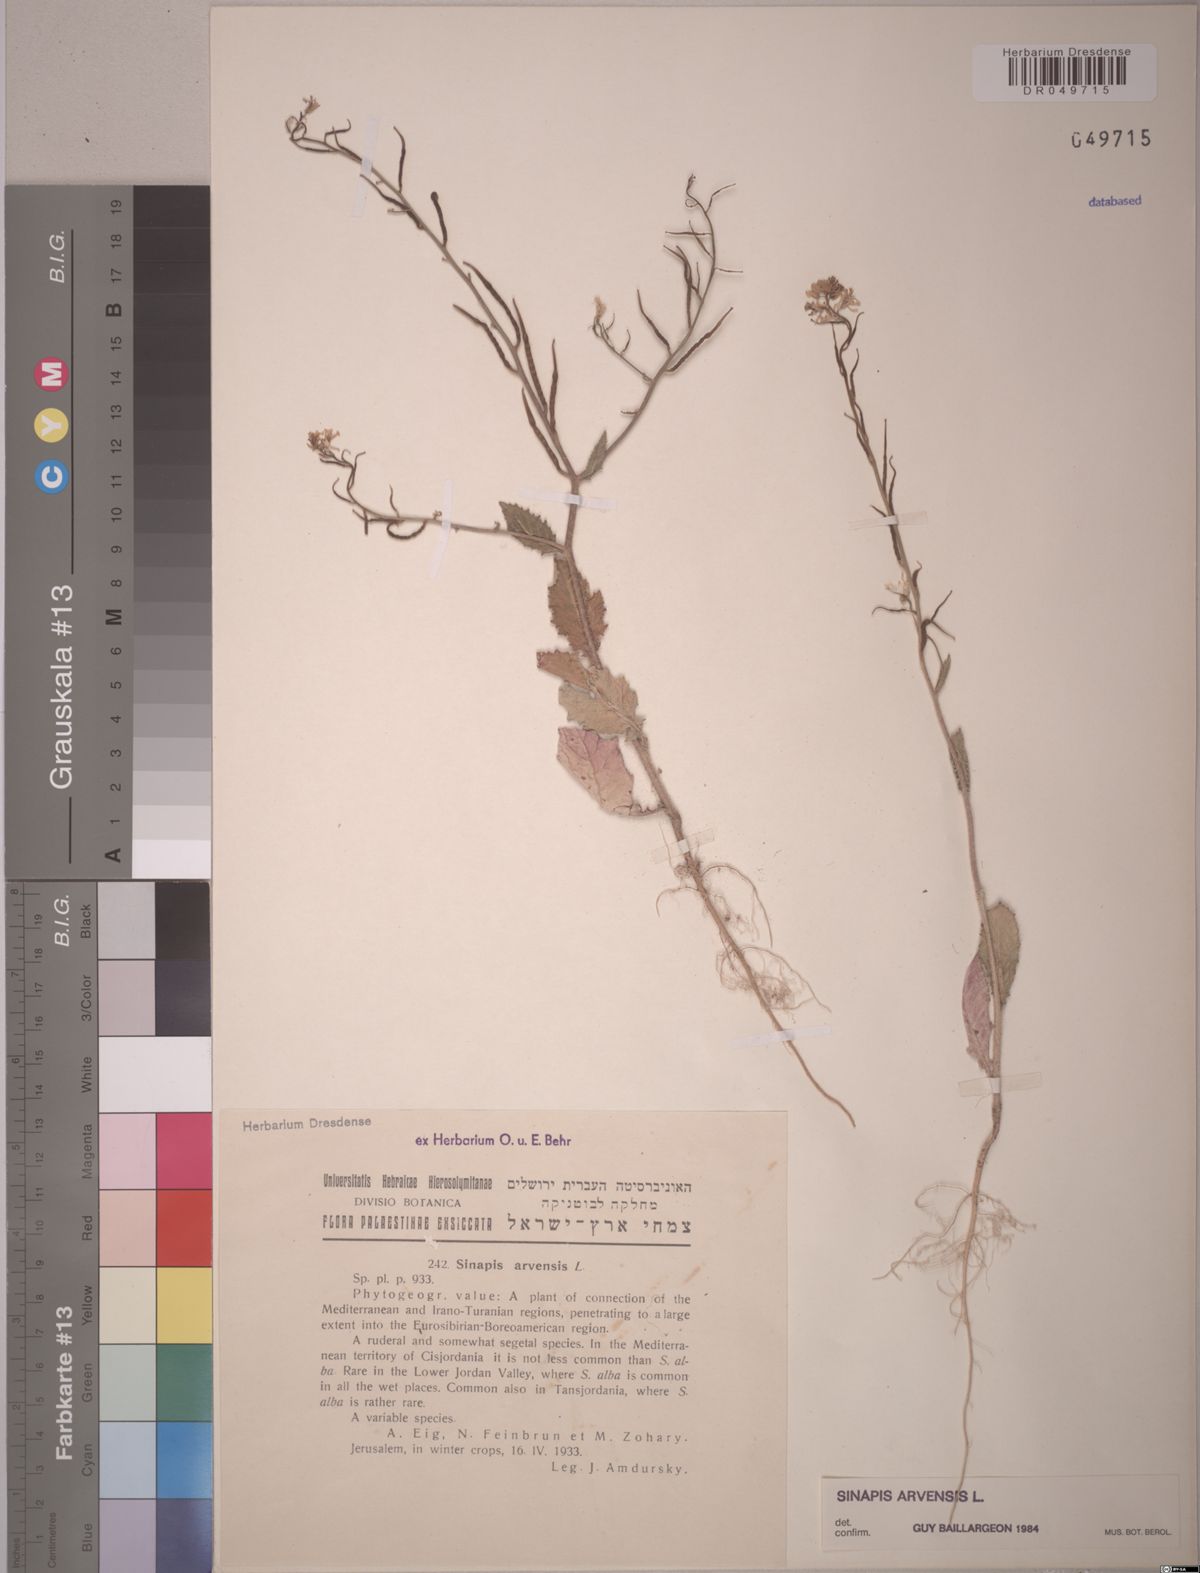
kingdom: Plantae
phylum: Tracheophyta
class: Magnoliopsida
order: Brassicales
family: Brassicaceae
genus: Sinapis
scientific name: Sinapis arvensis
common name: Charlock
